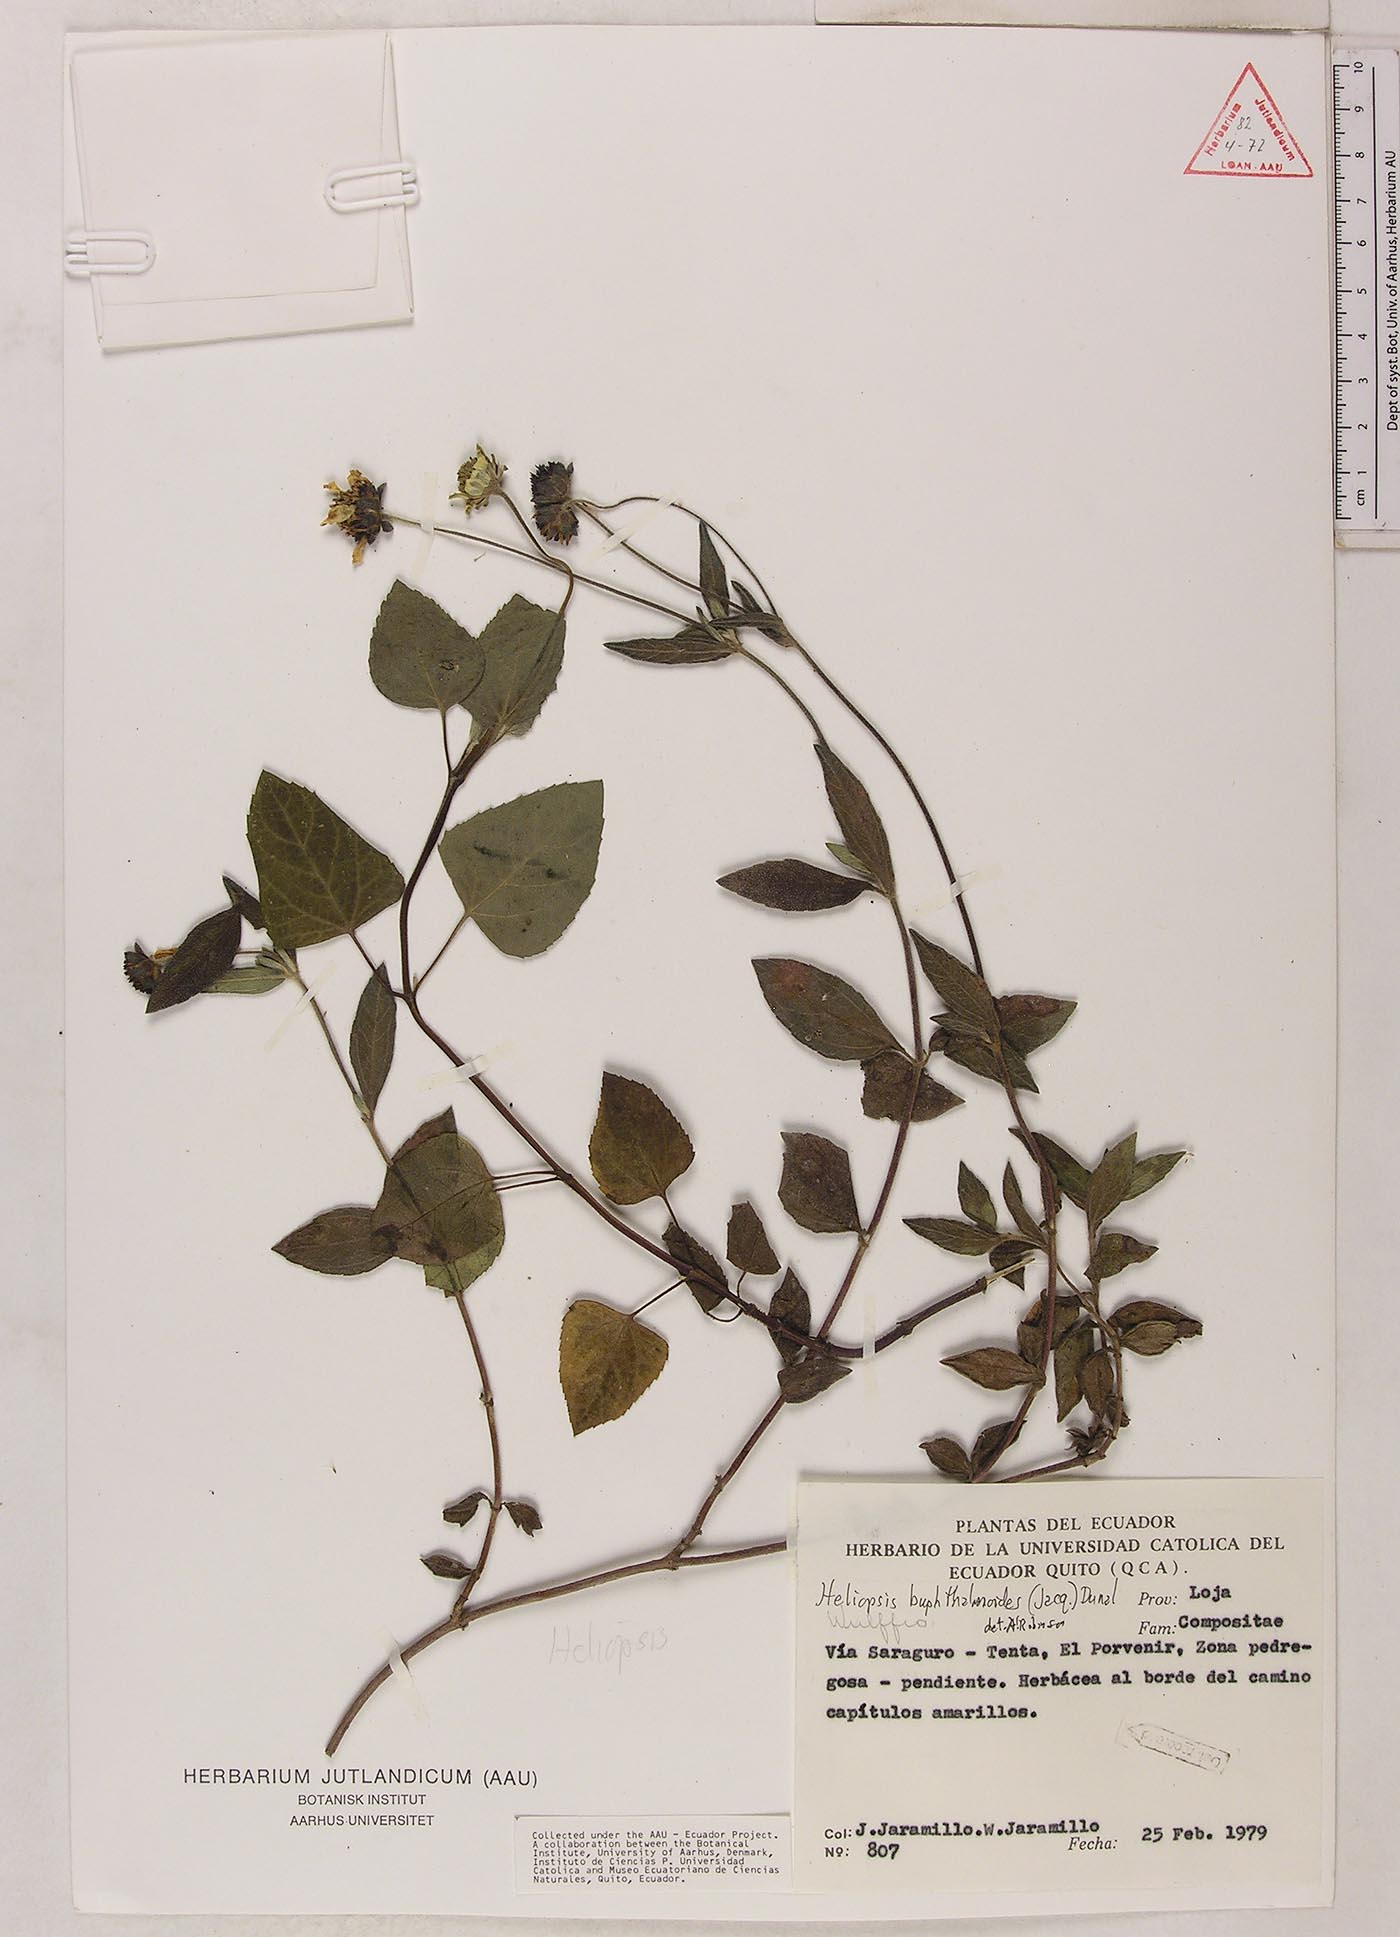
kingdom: Plantae
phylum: Tracheophyta
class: Magnoliopsida
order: Asterales
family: Asteraceae
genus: Heliopsis
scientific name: Heliopsis buphthalmoides
